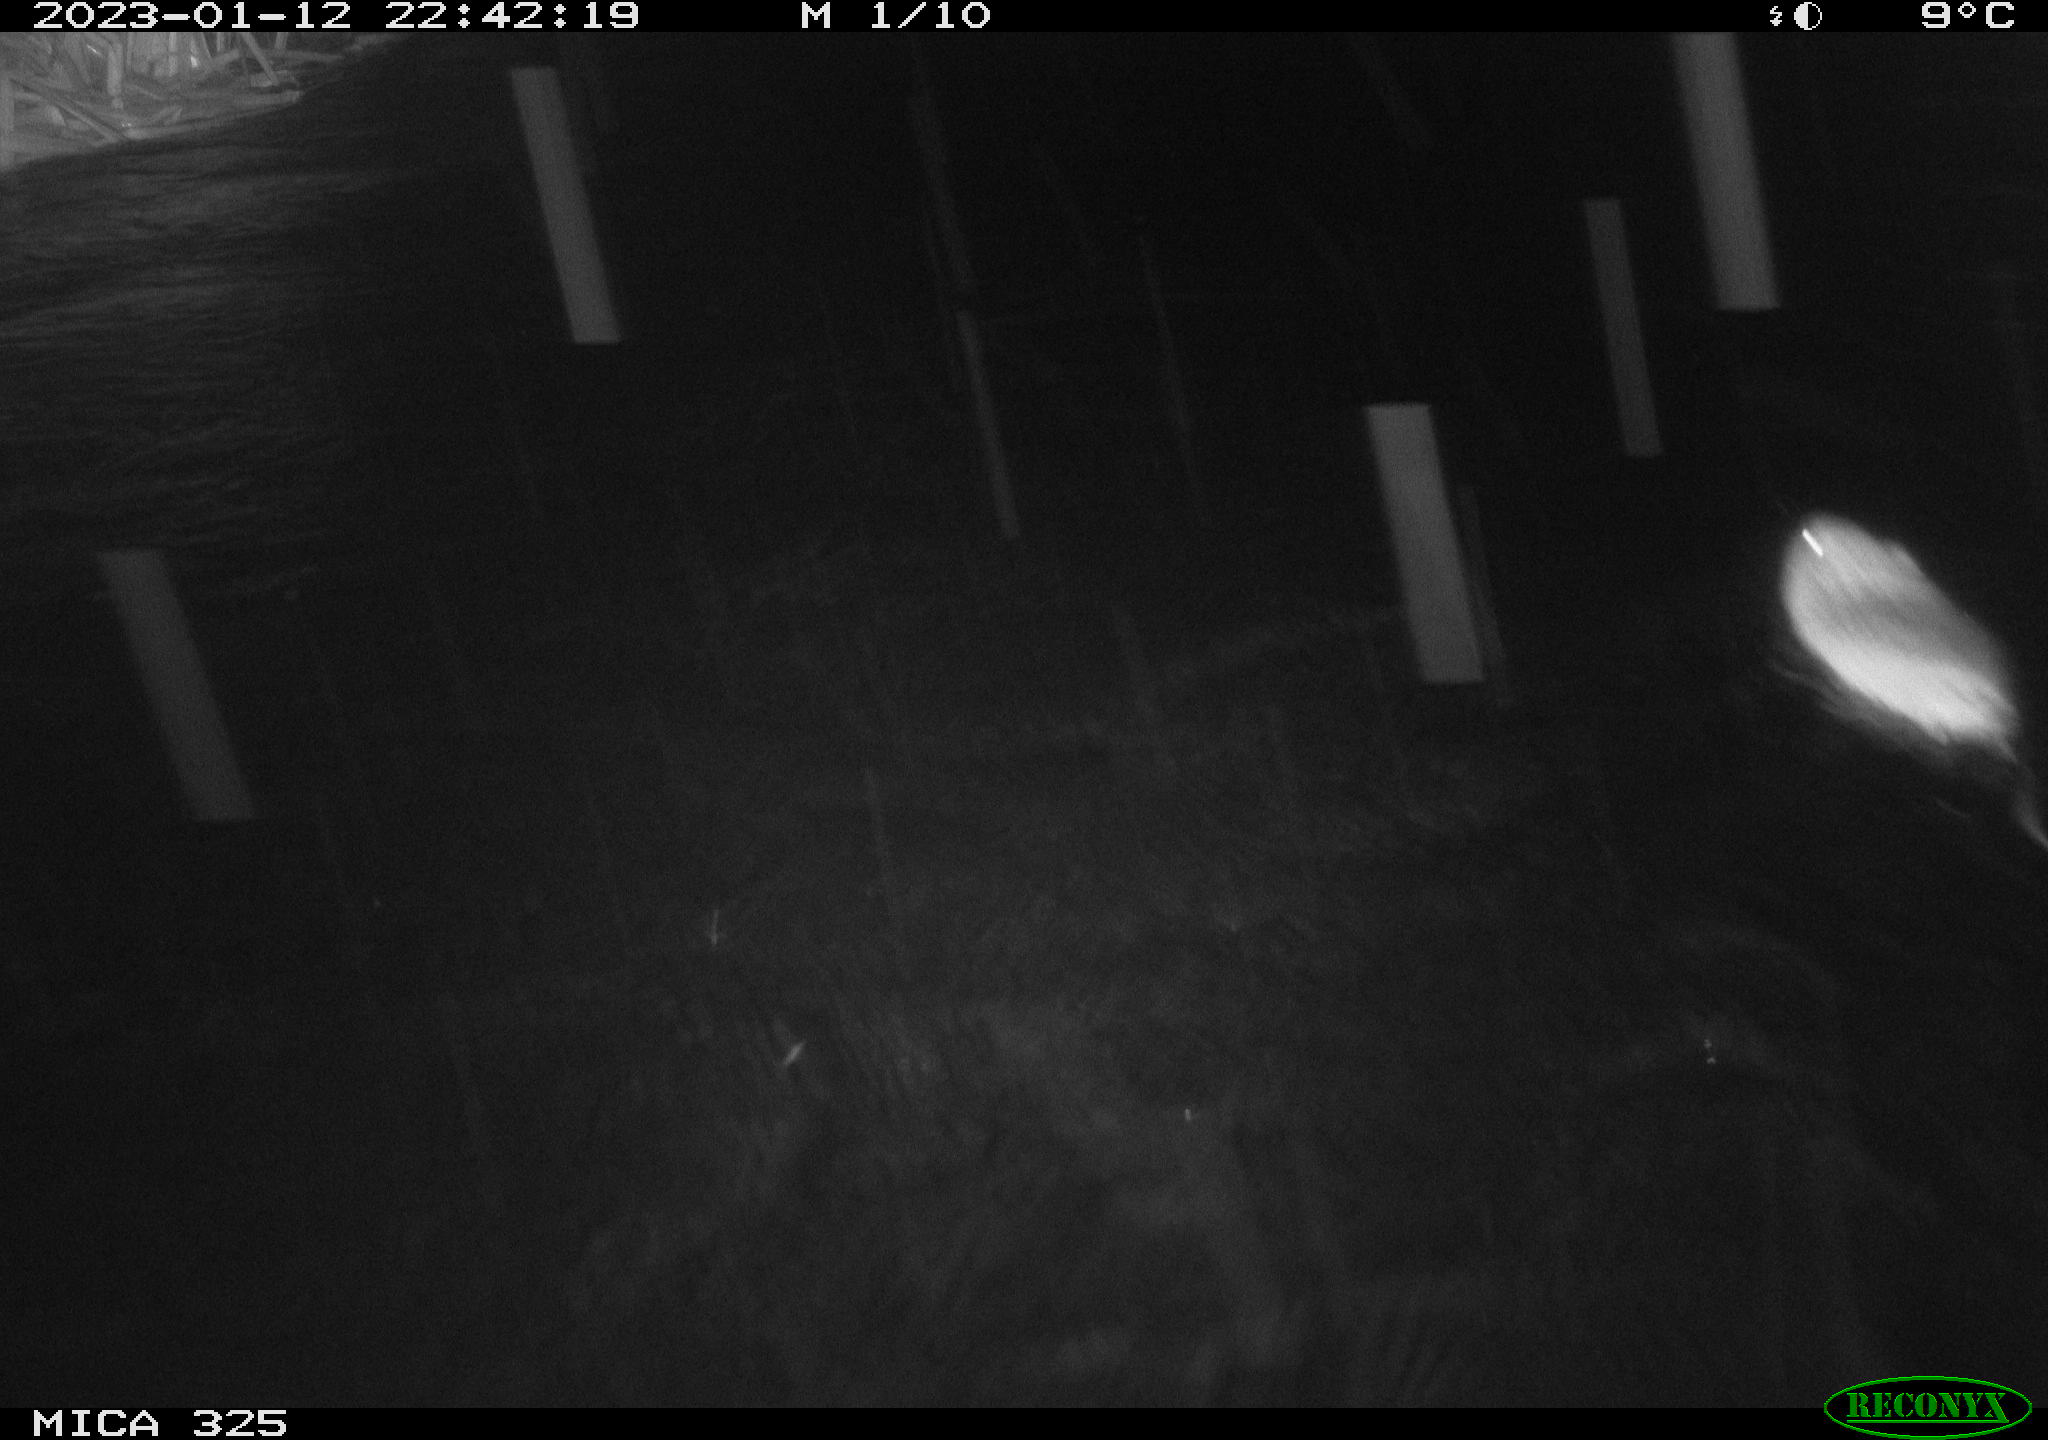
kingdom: Animalia
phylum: Chordata
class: Mammalia
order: Rodentia
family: Cricetidae
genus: Ondatra
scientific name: Ondatra zibethicus
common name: Muskrat
